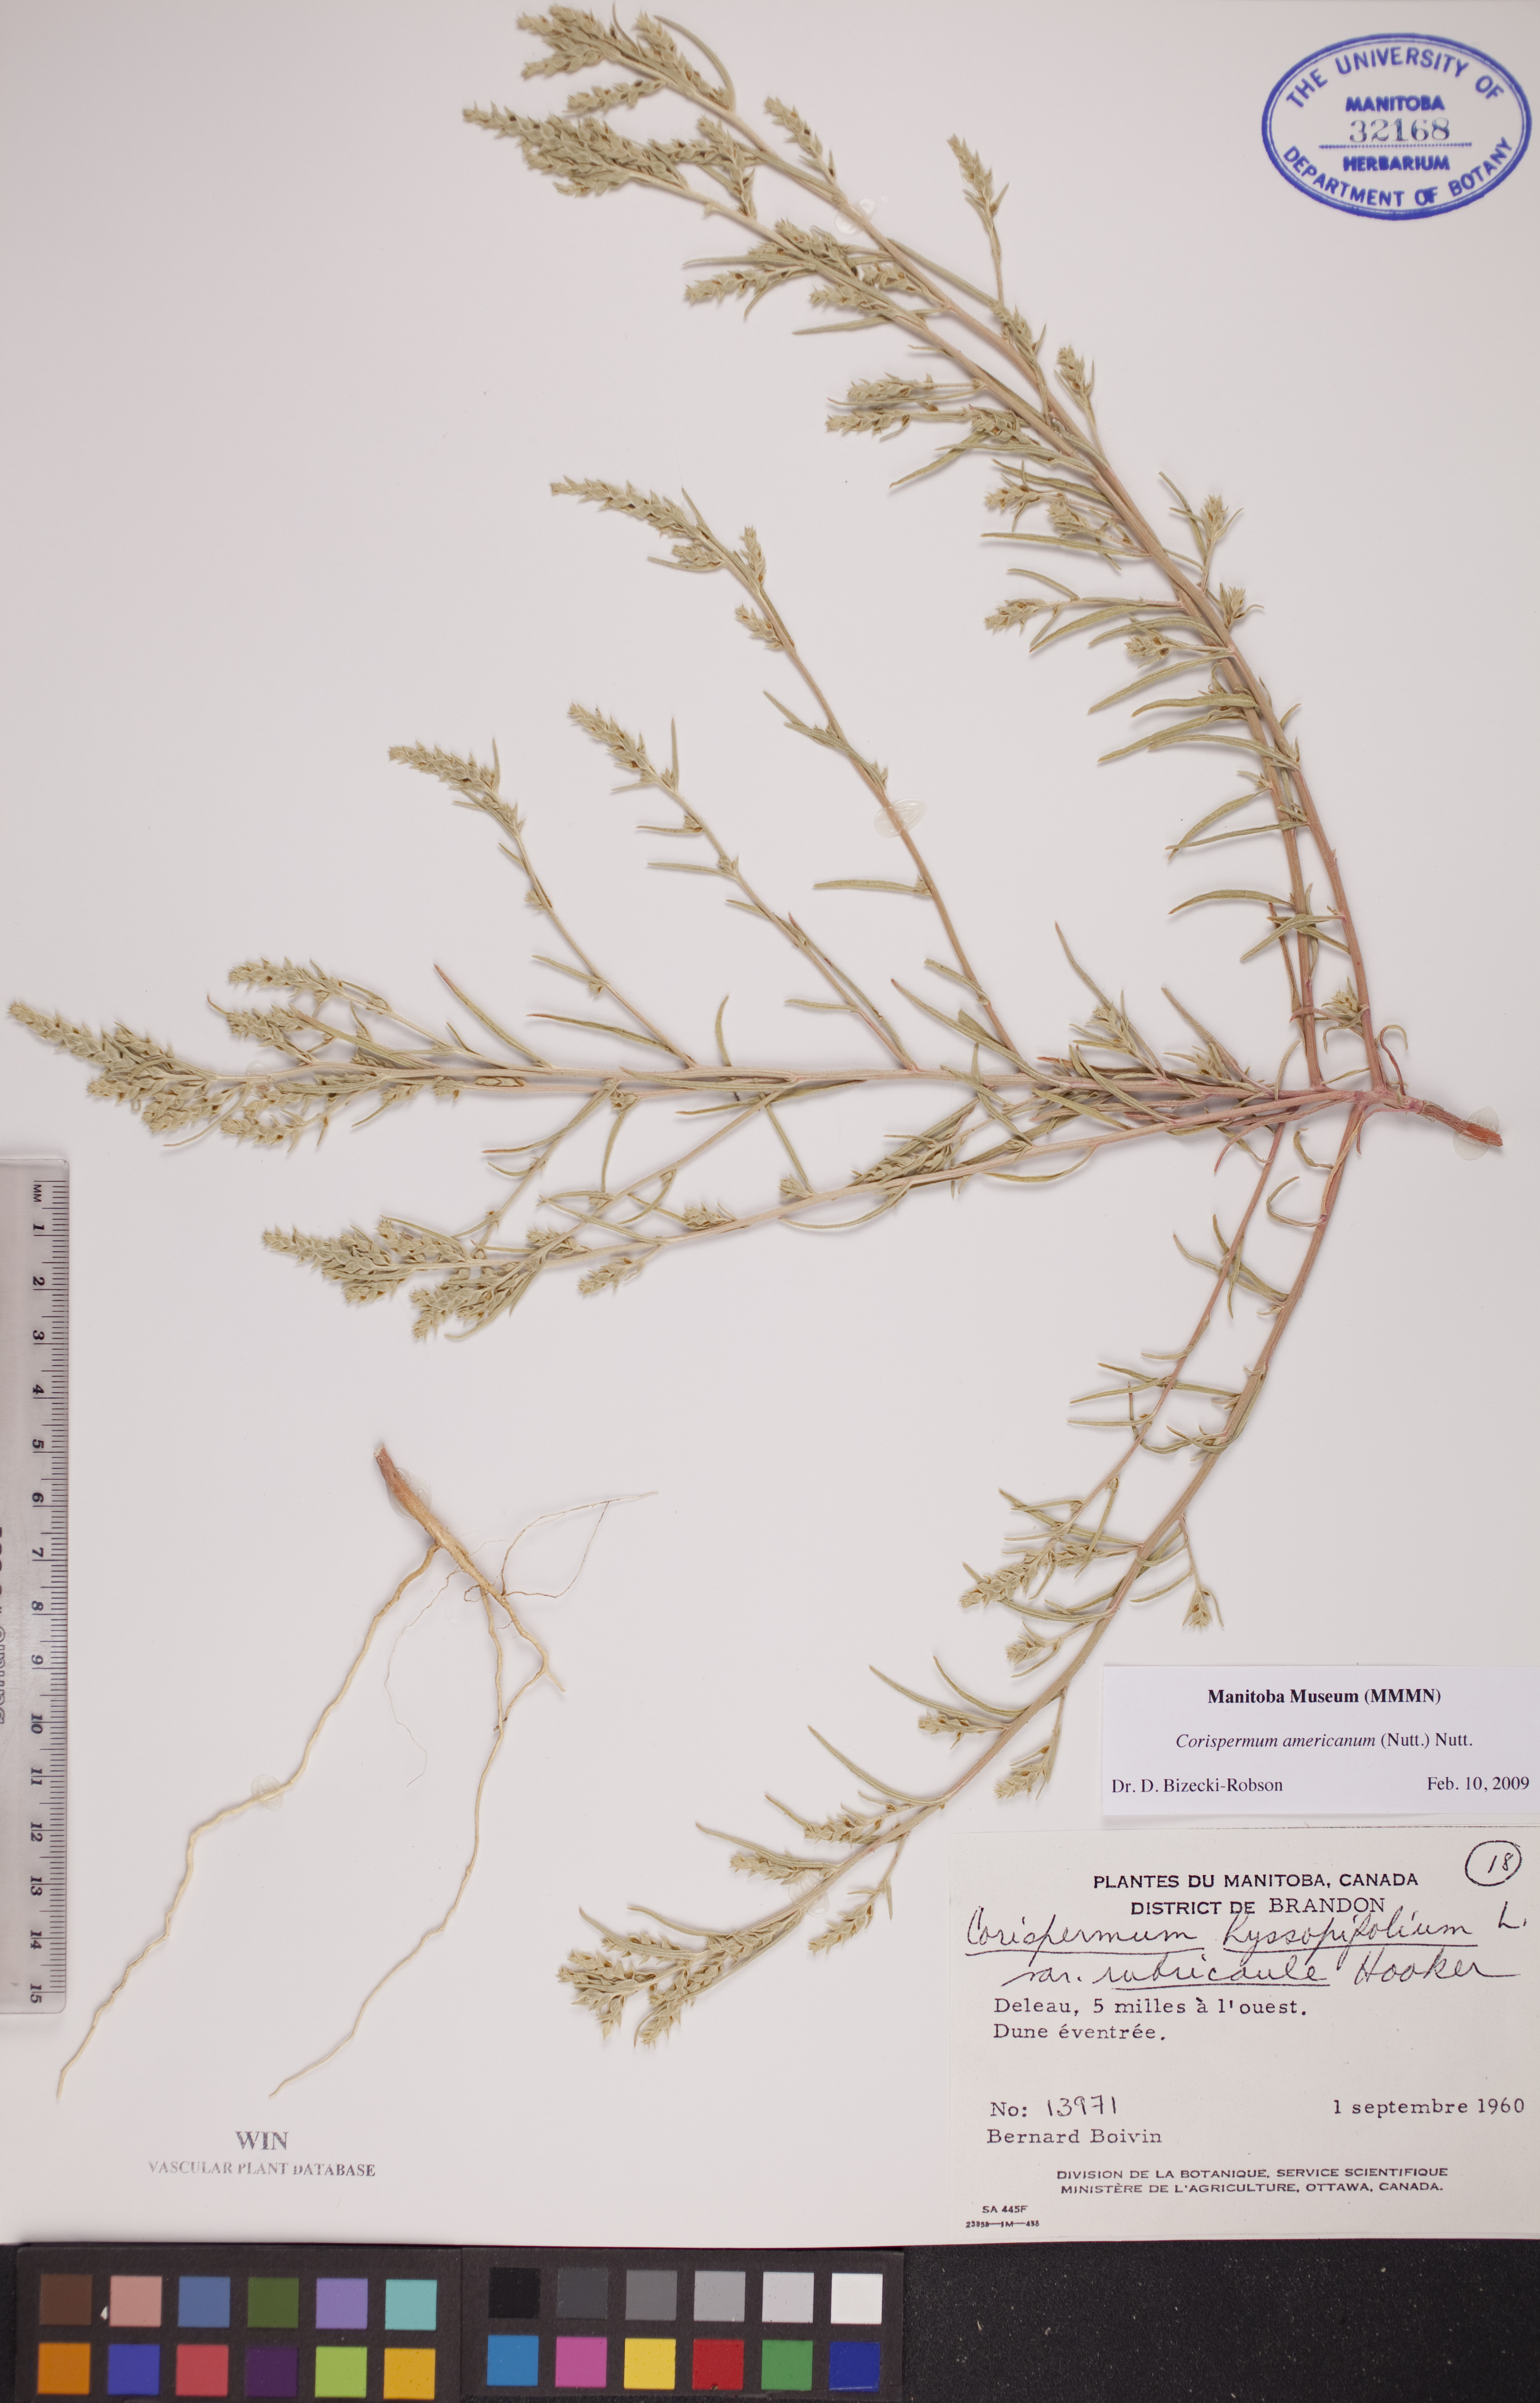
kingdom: Plantae
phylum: Tracheophyta
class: Magnoliopsida
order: Caryophyllales
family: Amaranthaceae
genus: Corispermum
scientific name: Corispermum americanum
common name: American bugseed
